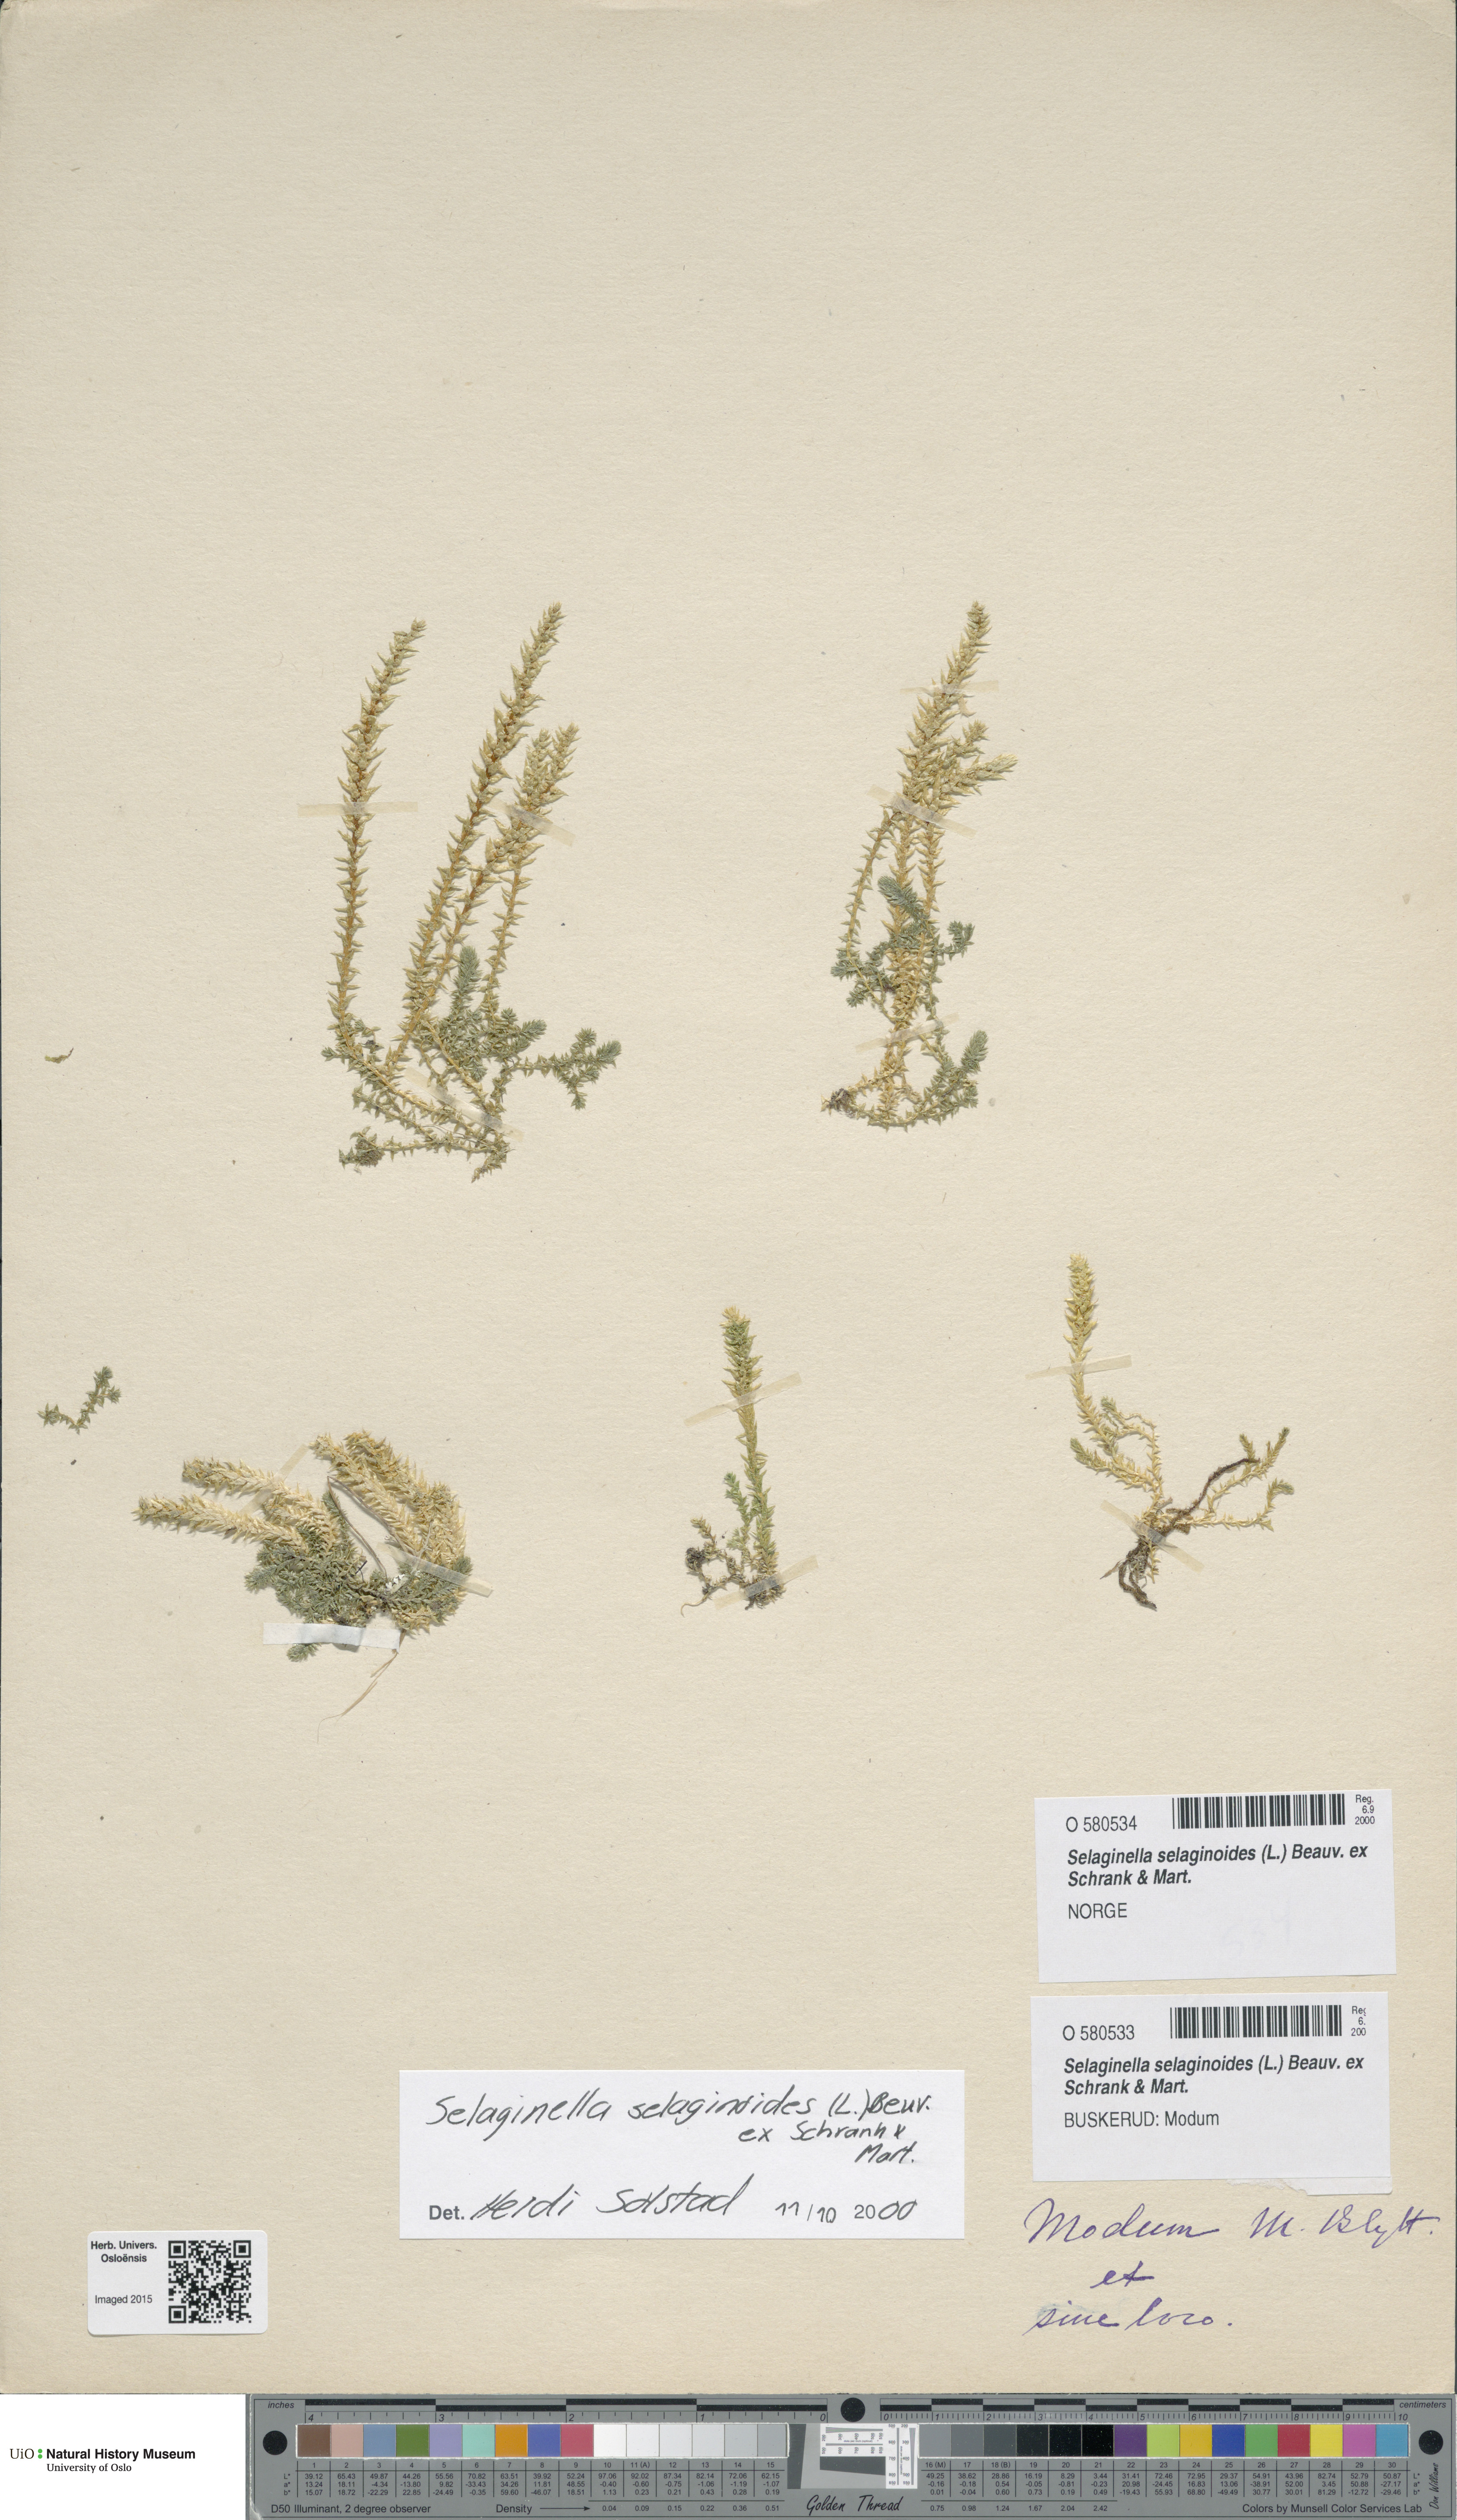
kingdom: Plantae
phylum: Tracheophyta
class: Lycopodiopsida
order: Selaginellales
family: Selaginellaceae
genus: Selaginella
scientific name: Selaginella selaginoides
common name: Prickly mountain-moss
